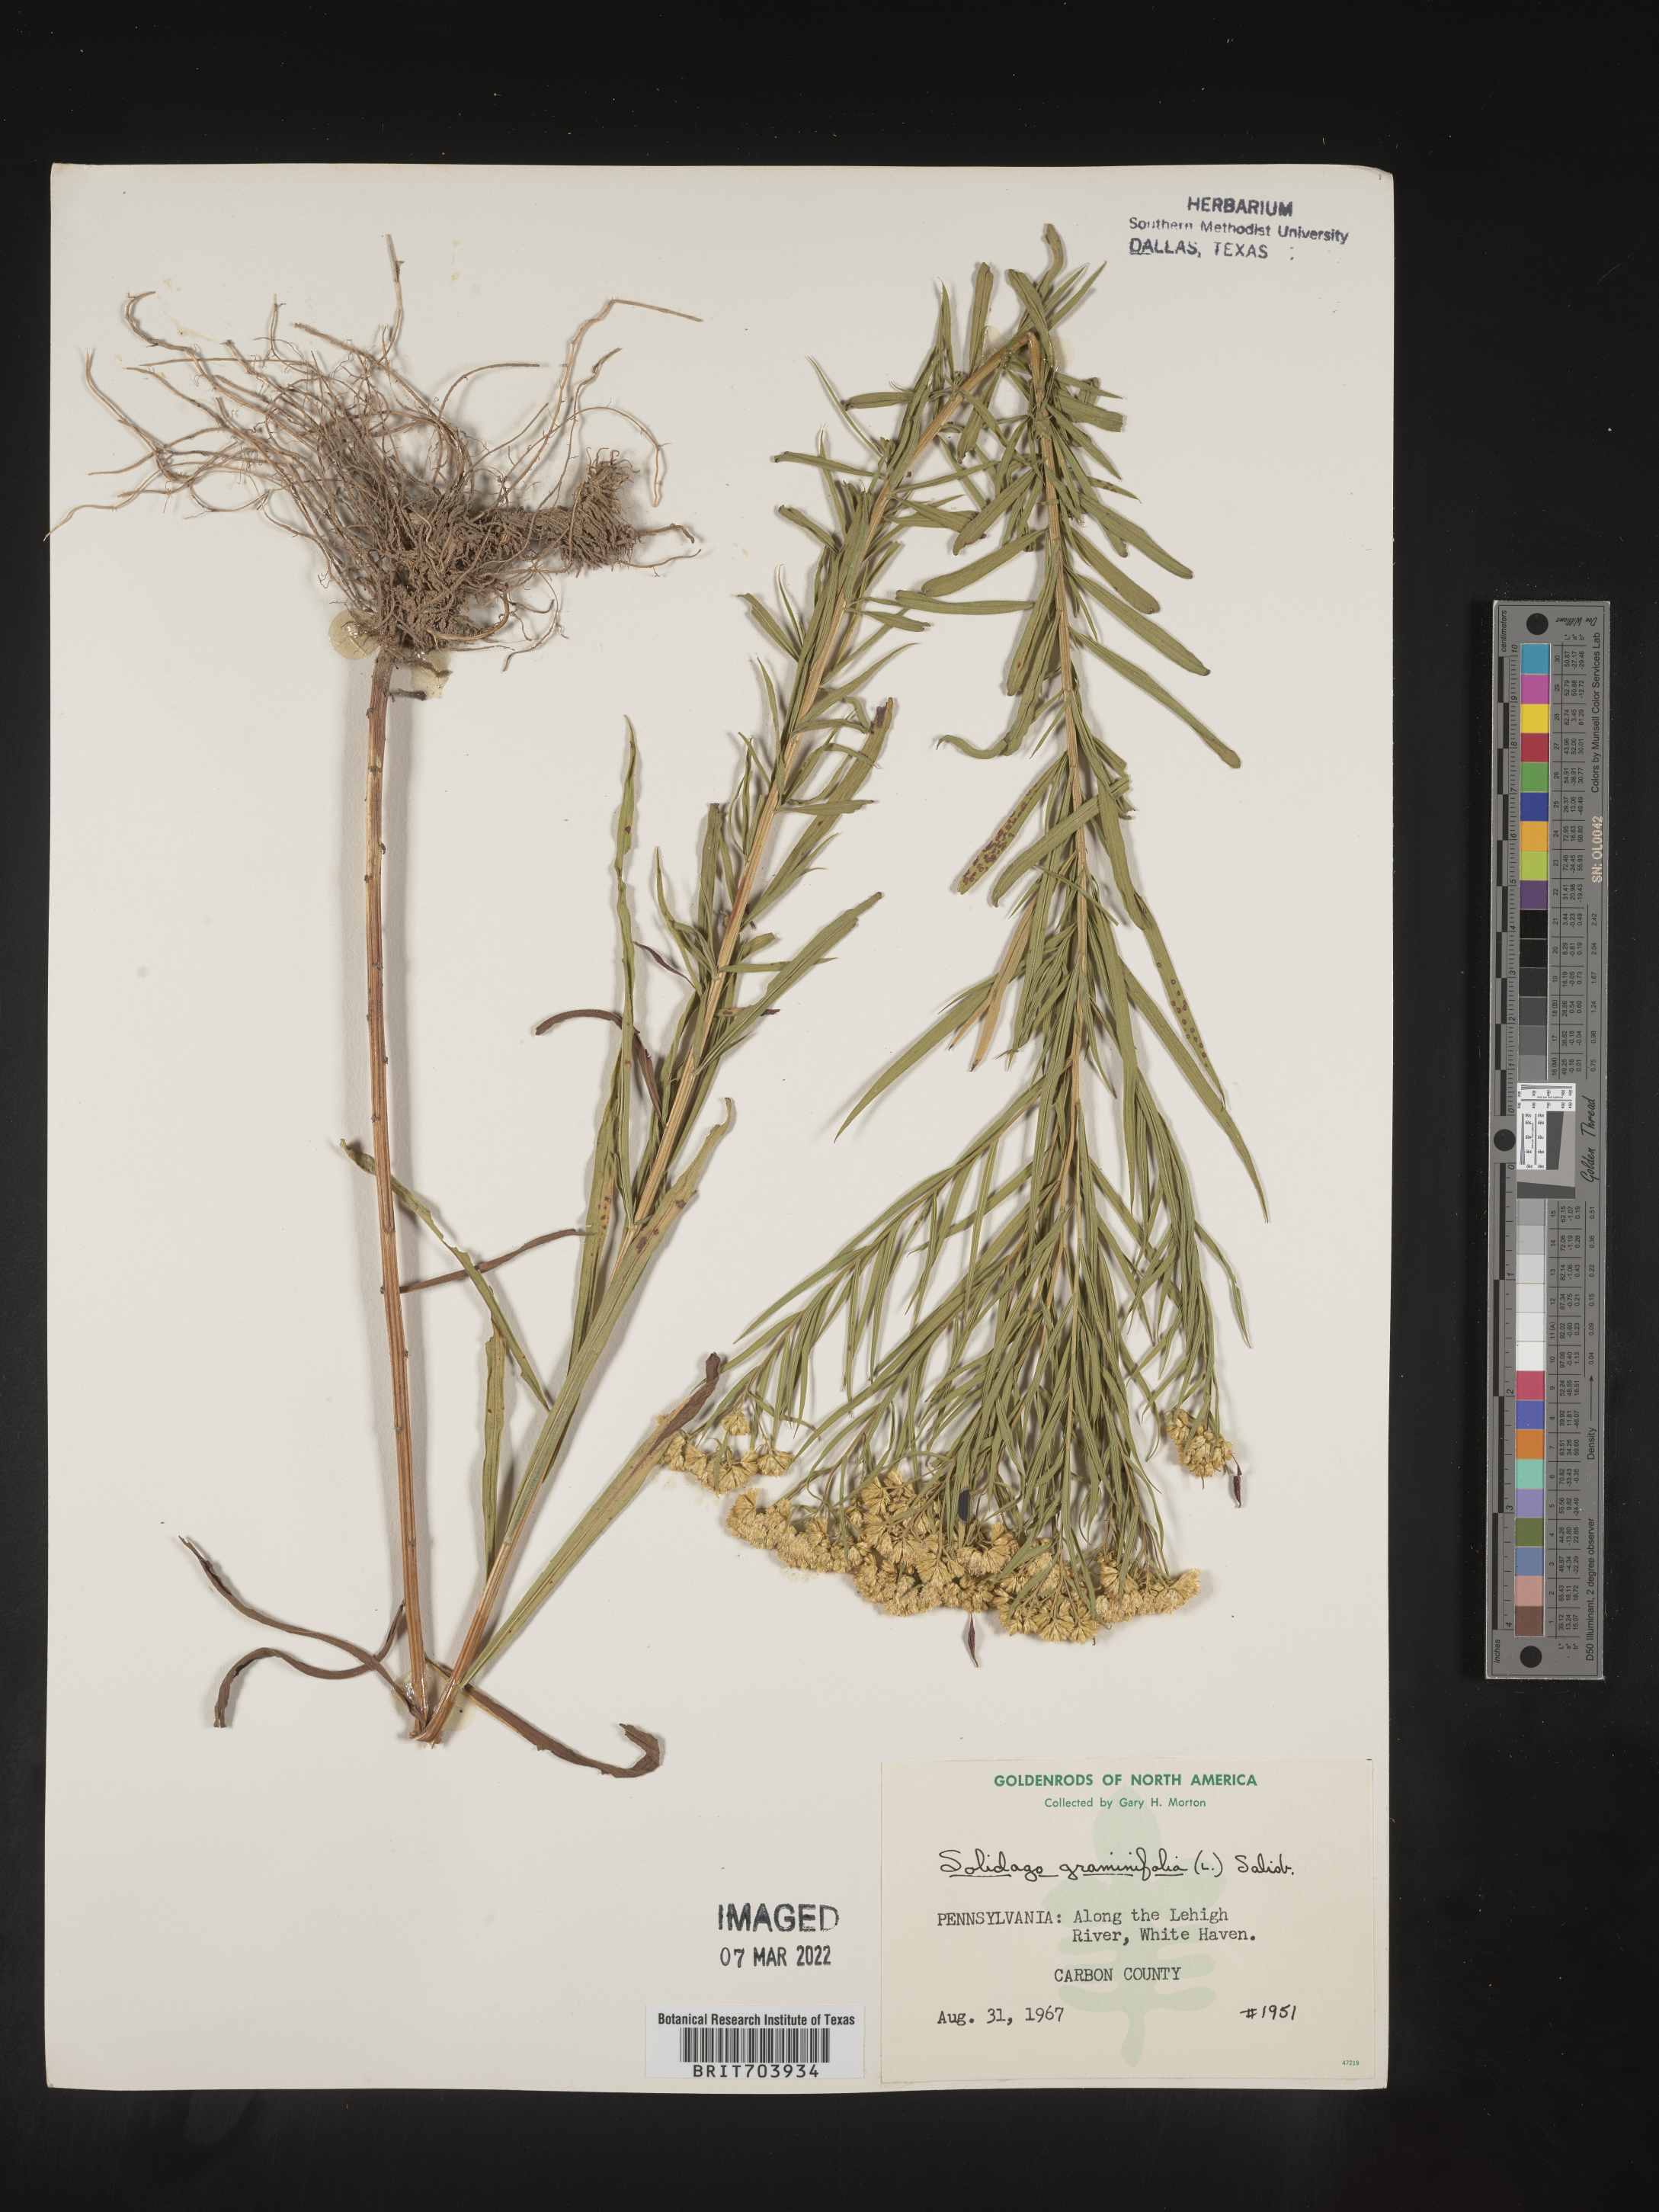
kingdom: Plantae
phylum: Tracheophyta
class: Magnoliopsida
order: Asterales
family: Asteraceae
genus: Euthamia
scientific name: Euthamia graminifolia
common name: Common goldentop
